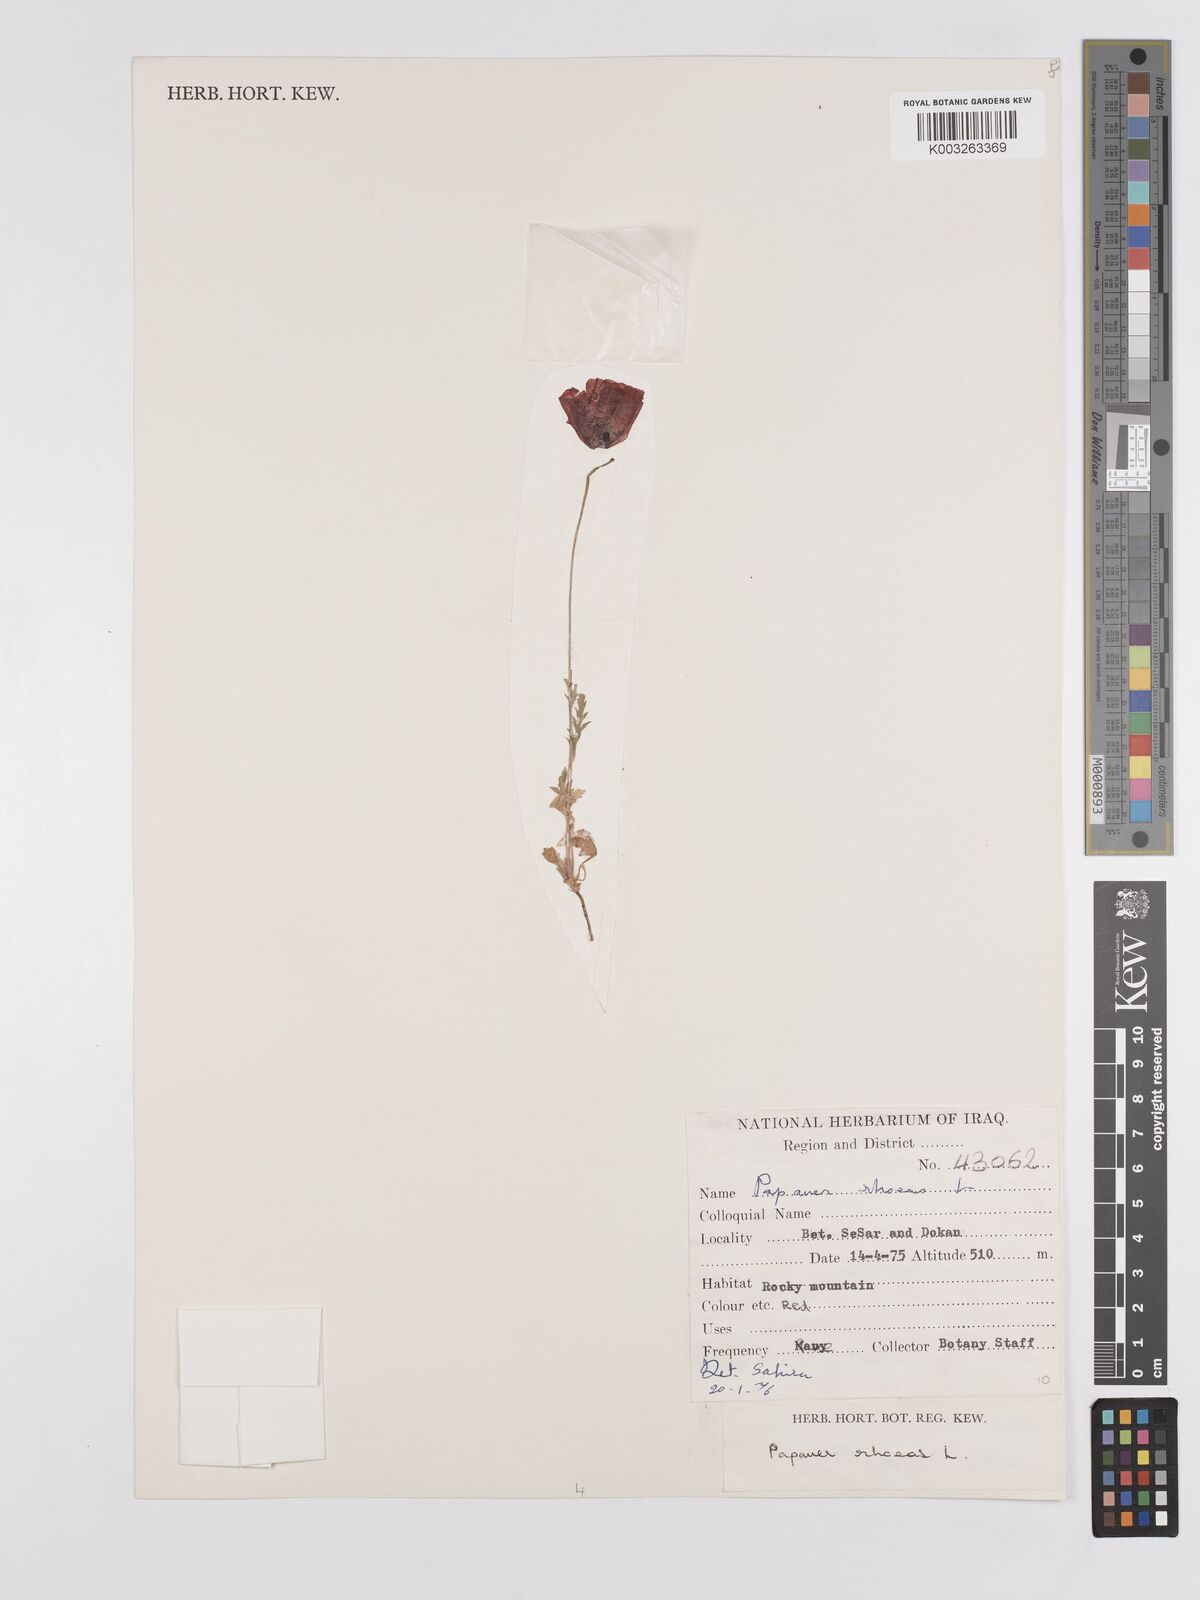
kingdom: Plantae
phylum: Tracheophyta
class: Magnoliopsida
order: Ranunculales
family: Papaveraceae
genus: Papaver
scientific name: Papaver rhoeas
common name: Corn poppy
